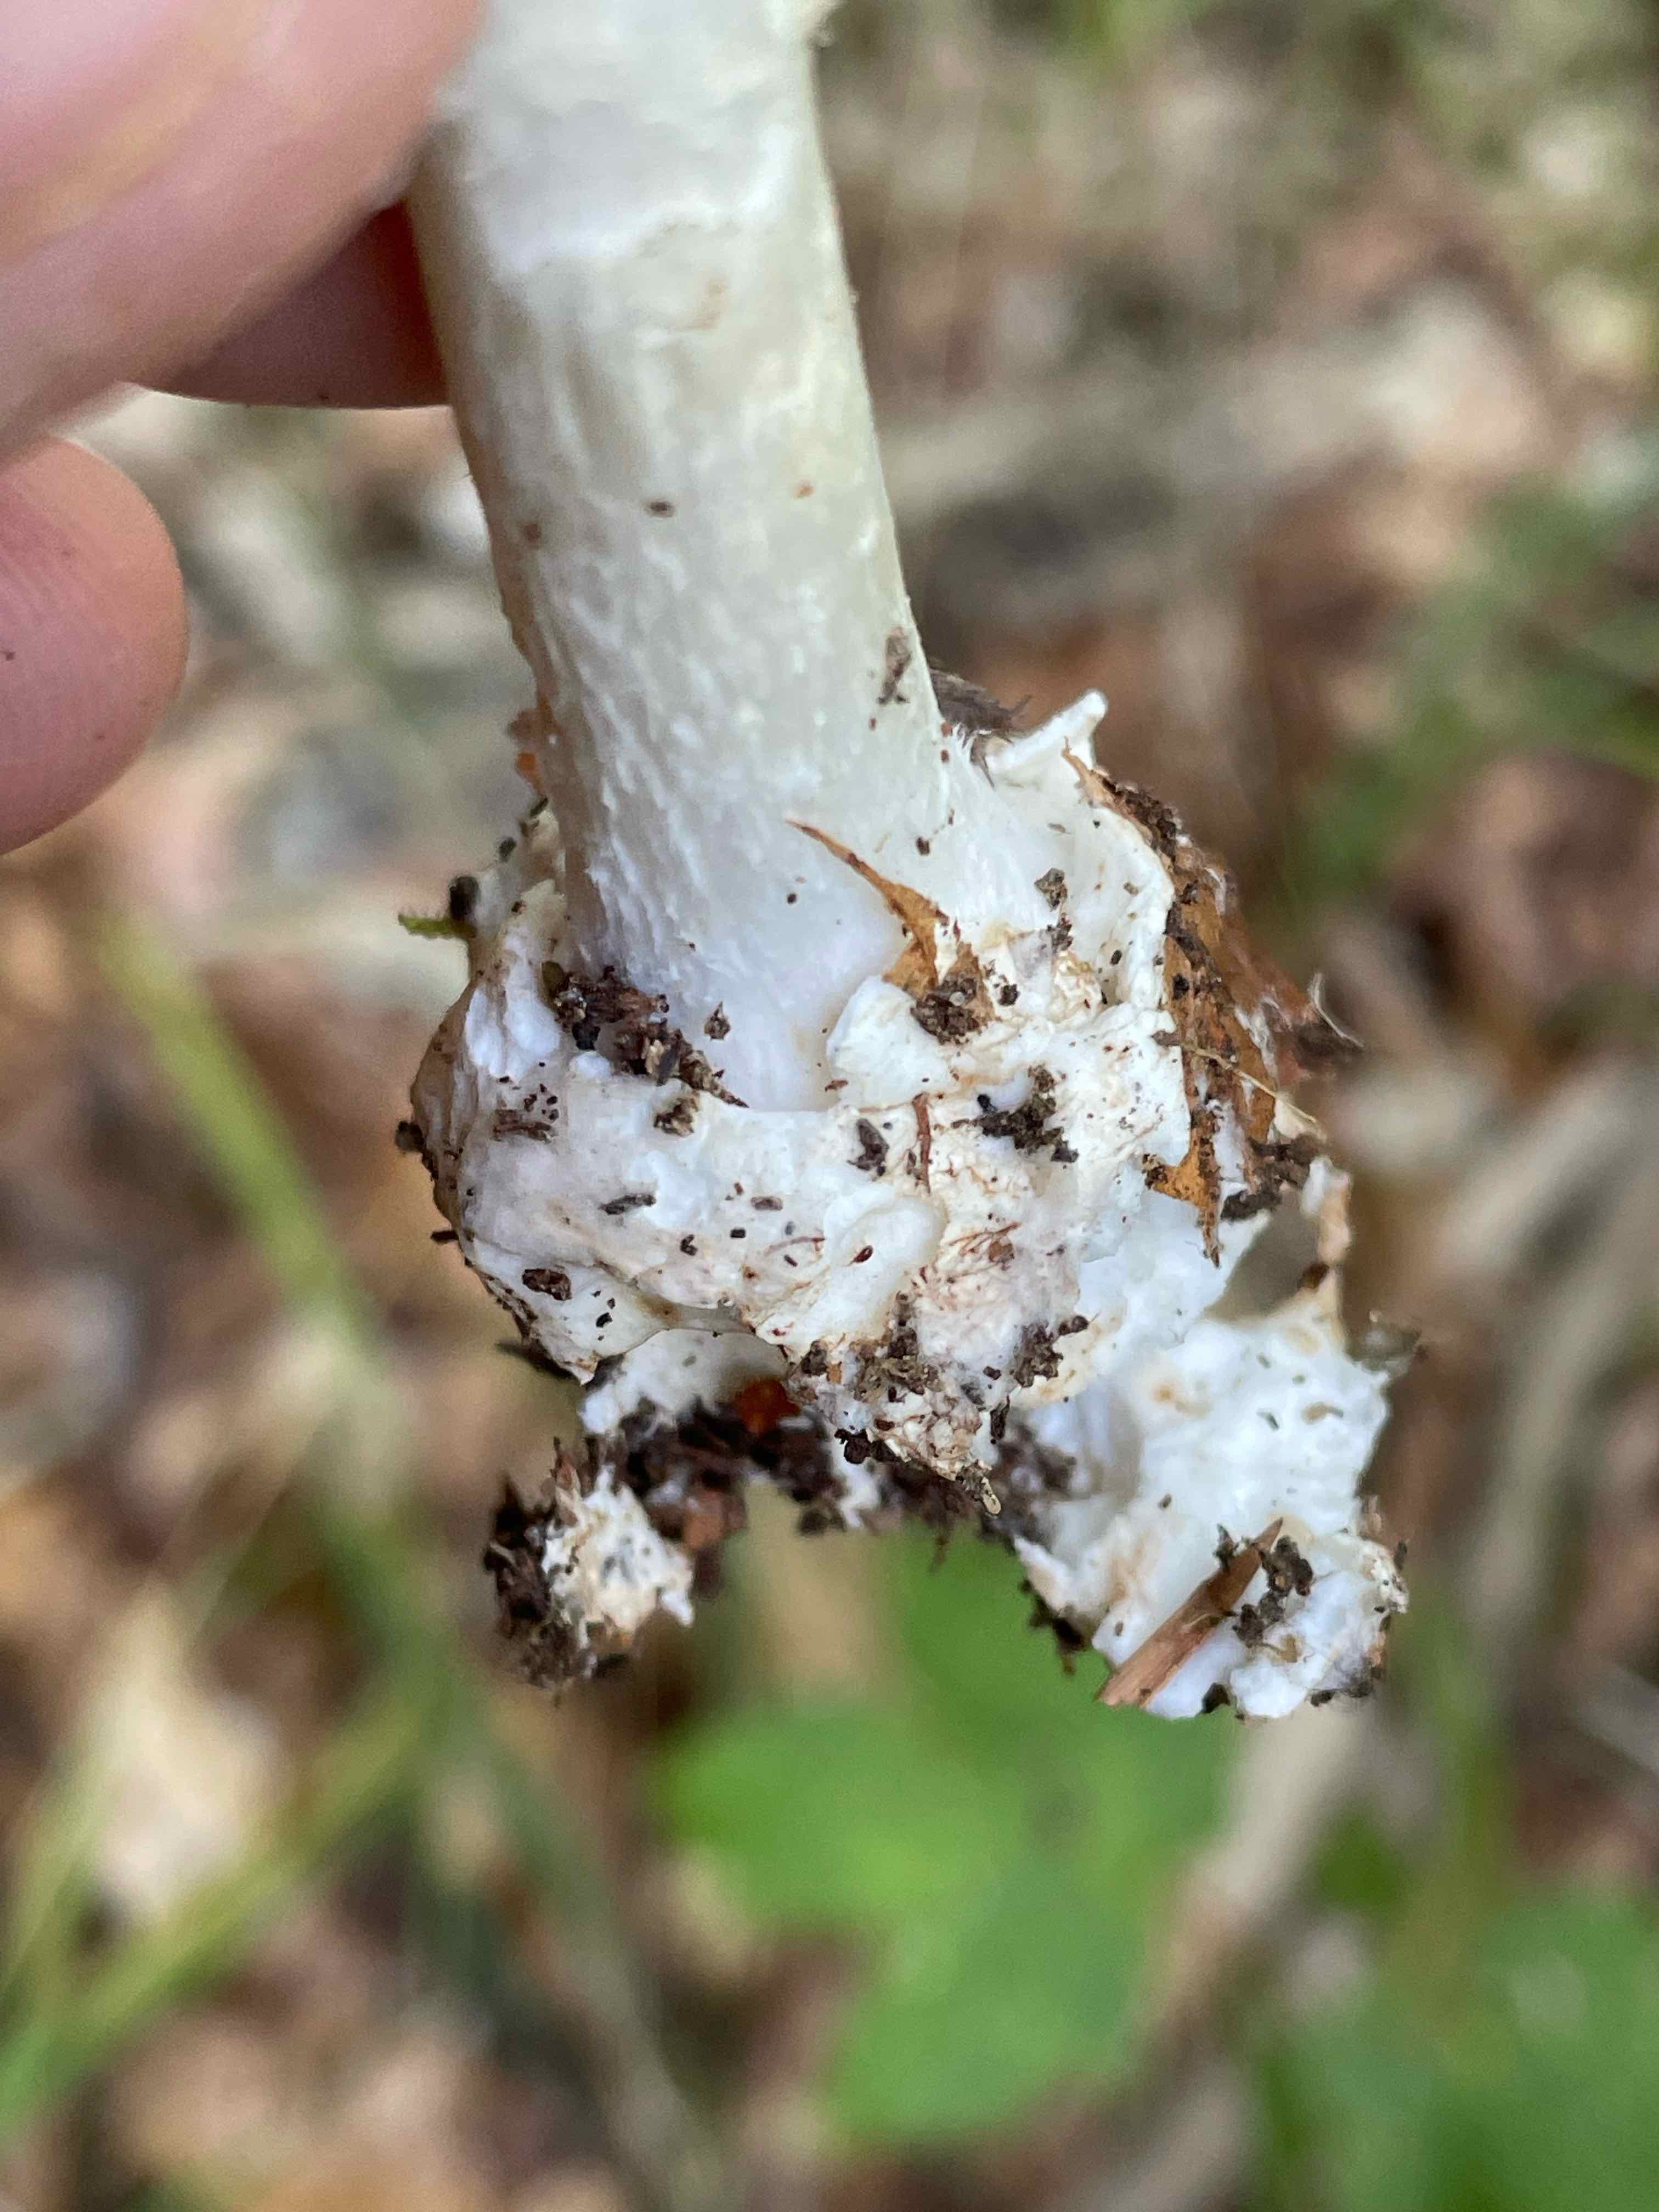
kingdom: Fungi
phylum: Basidiomycota
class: Agaricomycetes
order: Agaricales
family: Amanitaceae
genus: Amanita
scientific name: Amanita virosa
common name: snehvid fluesvamp
